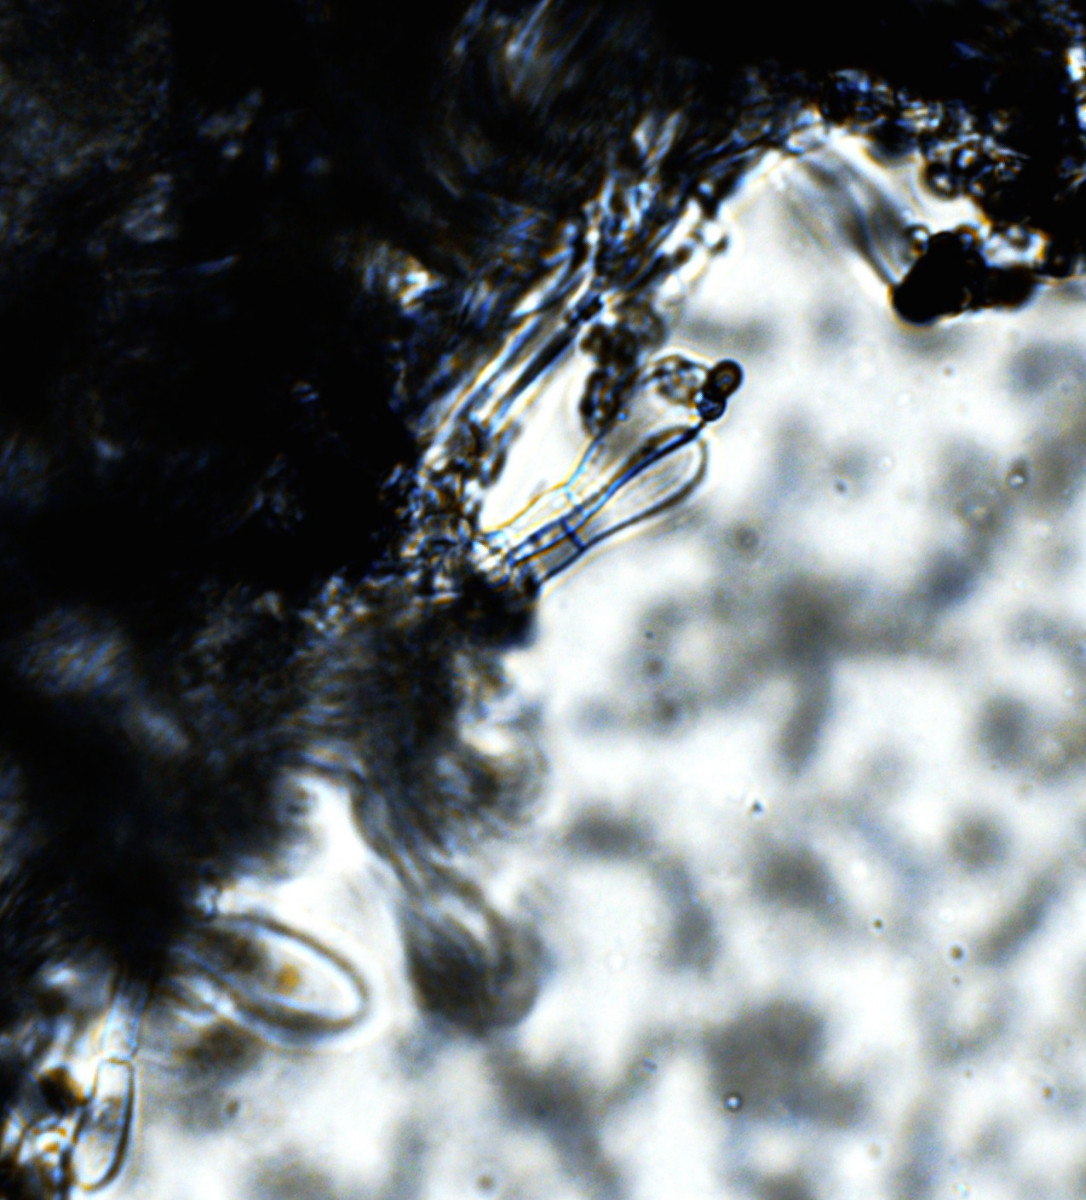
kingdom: Fungi
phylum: Basidiomycota
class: Agaricomycetes
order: Agaricales
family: Agaricaceae
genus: Agaricus
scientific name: Agaricus
